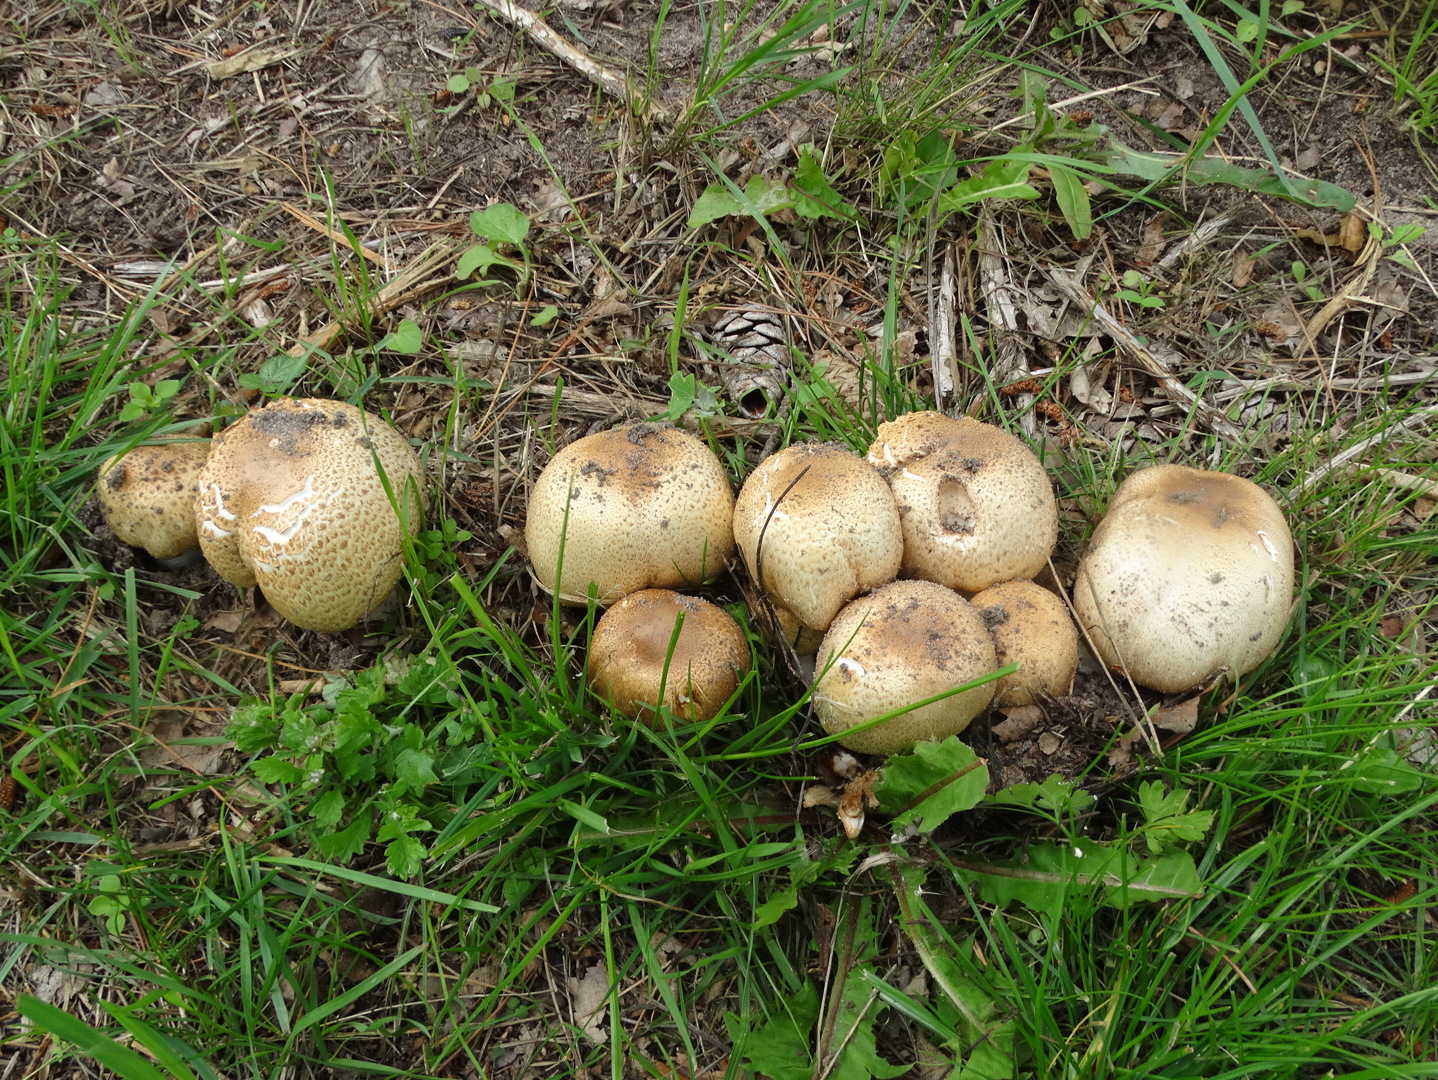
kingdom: Fungi
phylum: Basidiomycota
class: Agaricomycetes
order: Agaricales
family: Agaricaceae
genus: Agaricus
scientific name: Agaricus augustus
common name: prægtig champignon
